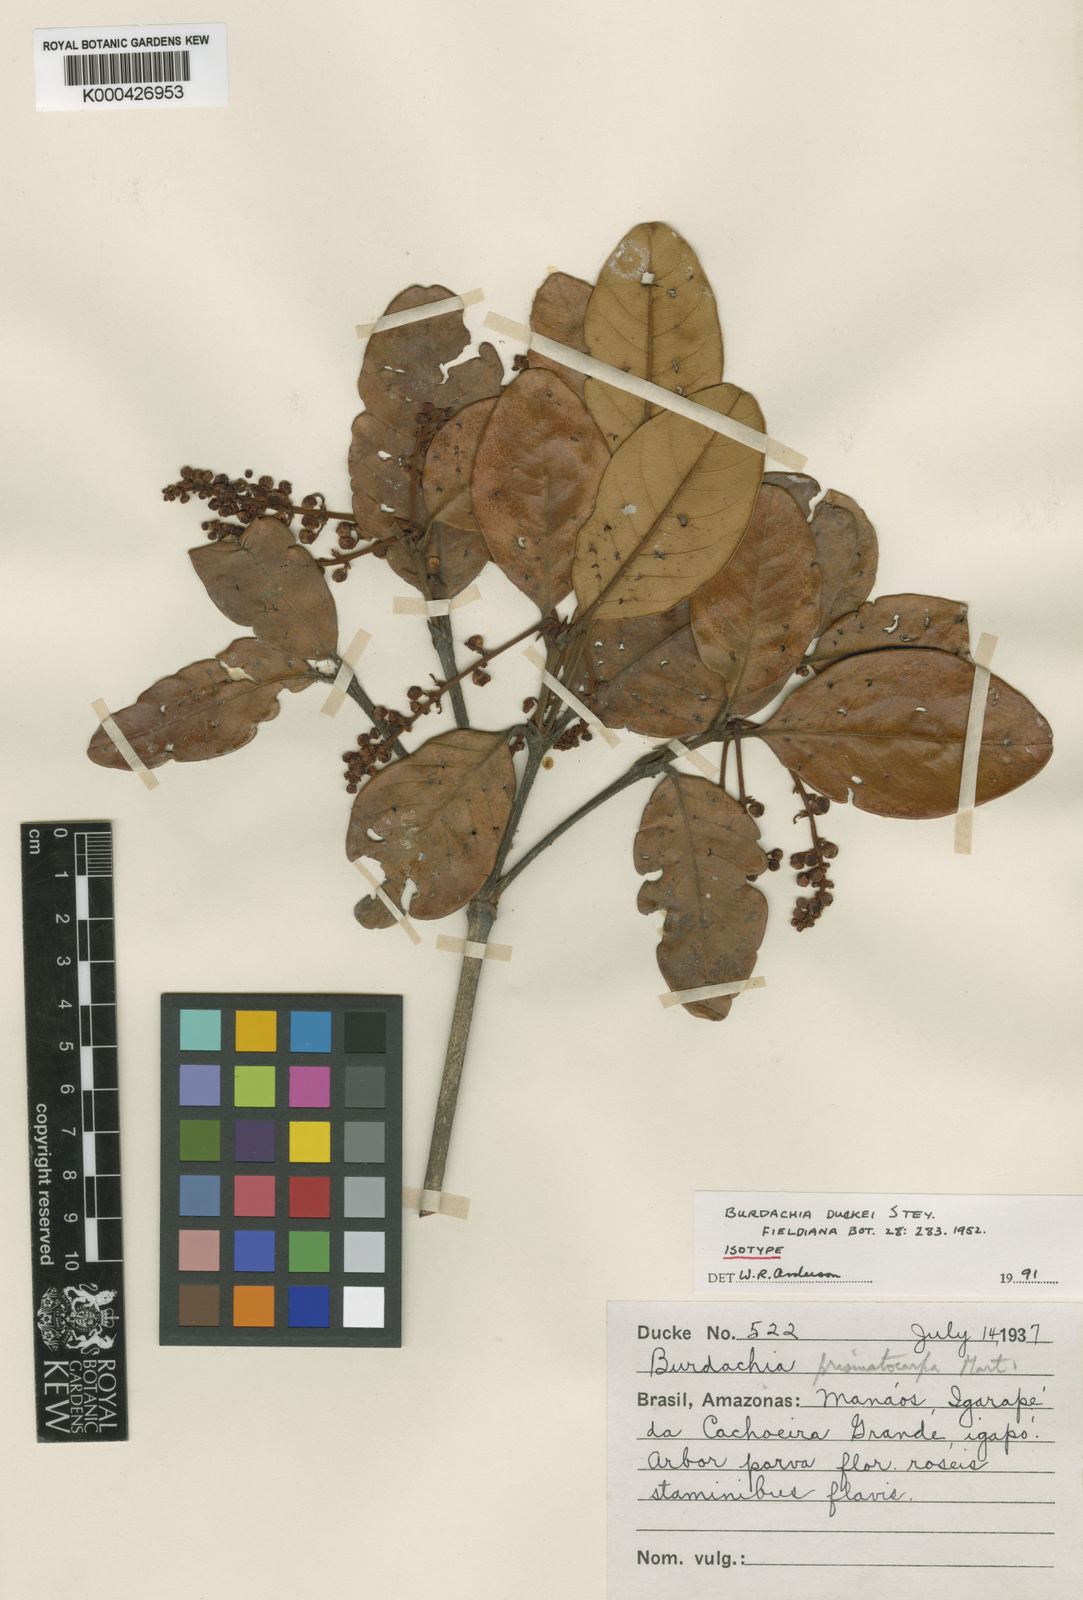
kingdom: Plantae
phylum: Tracheophyta
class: Magnoliopsida
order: Malpighiales
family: Malpighiaceae
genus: Burdachia
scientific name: Burdachia duckei
